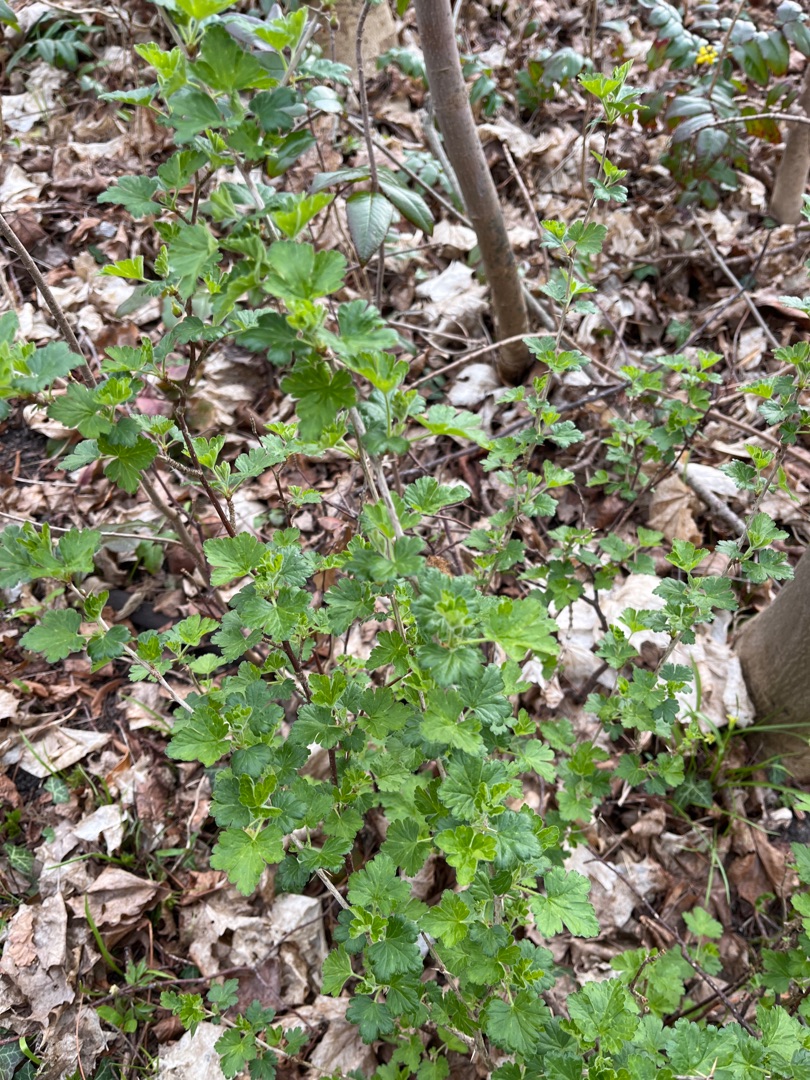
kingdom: Plantae
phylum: Tracheophyta
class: Magnoliopsida
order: Saxifragales
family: Grossulariaceae
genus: Ribes
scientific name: Ribes uva-crispa
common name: Stikkelsbær
